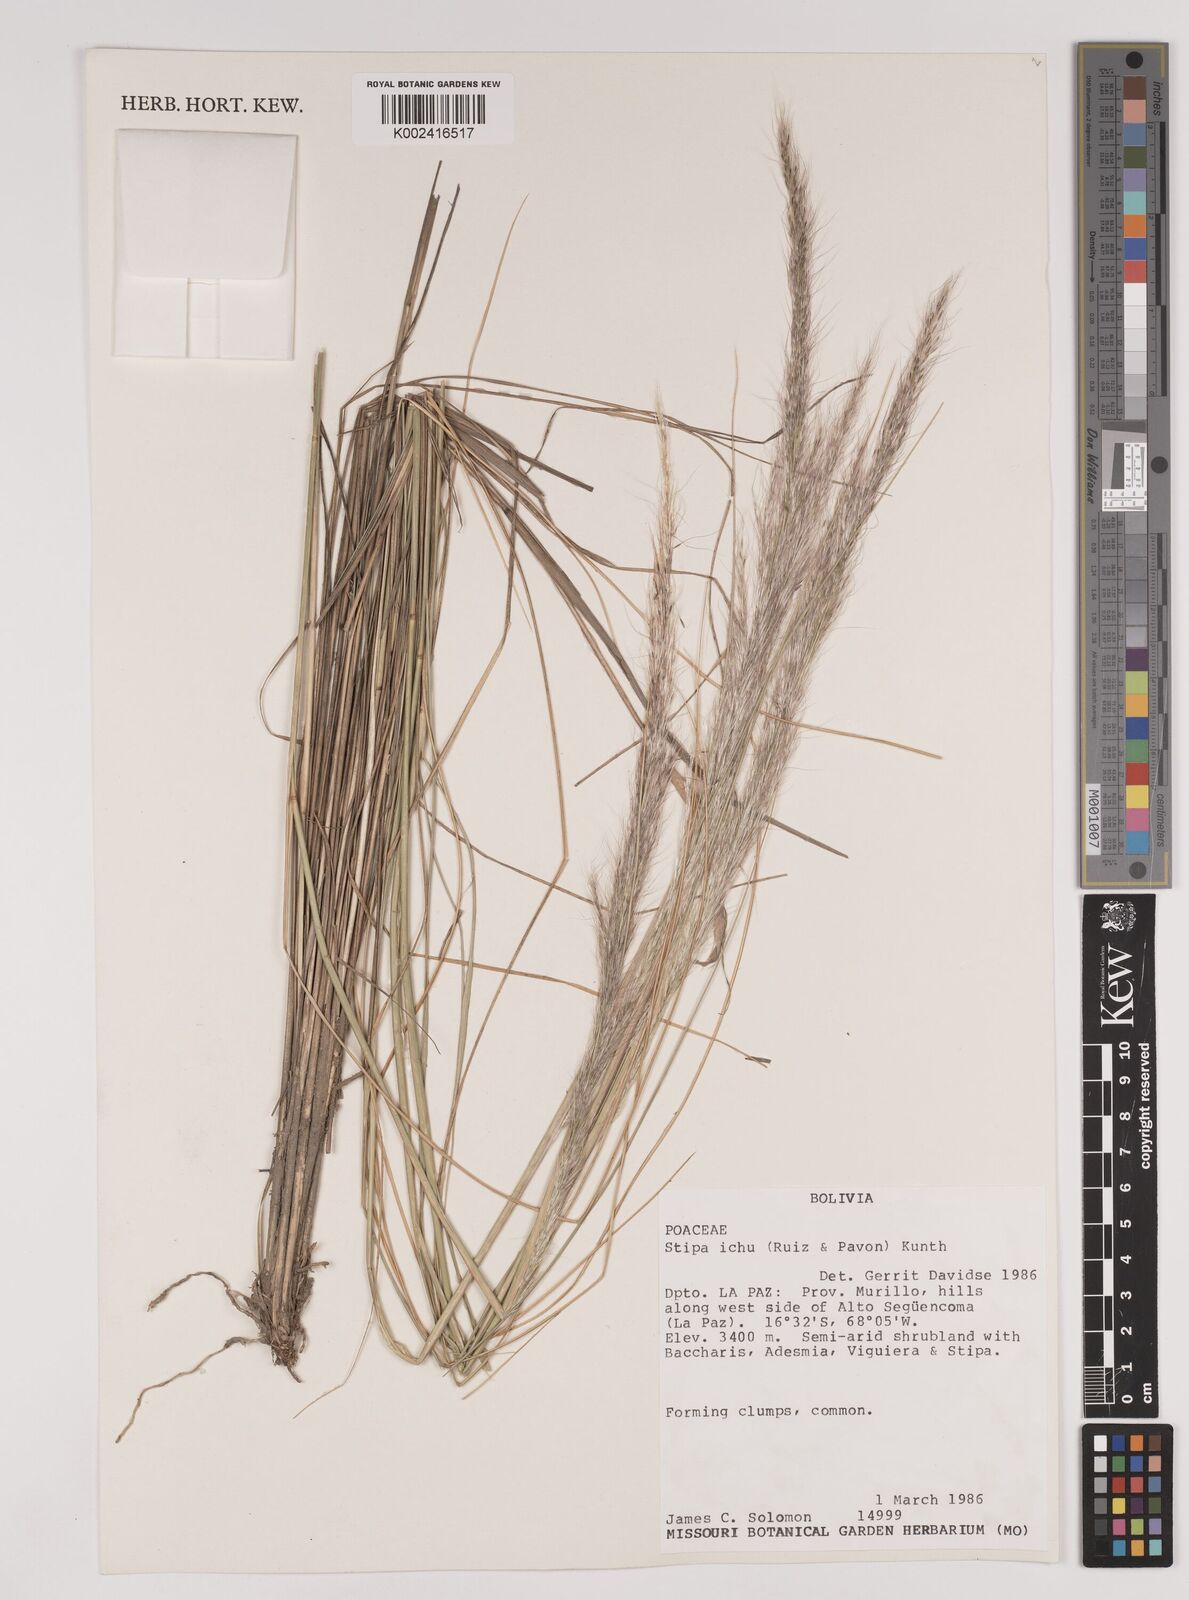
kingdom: Plantae
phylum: Tracheophyta
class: Liliopsida
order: Poales
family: Poaceae
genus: Jarava
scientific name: Jarava ichu
